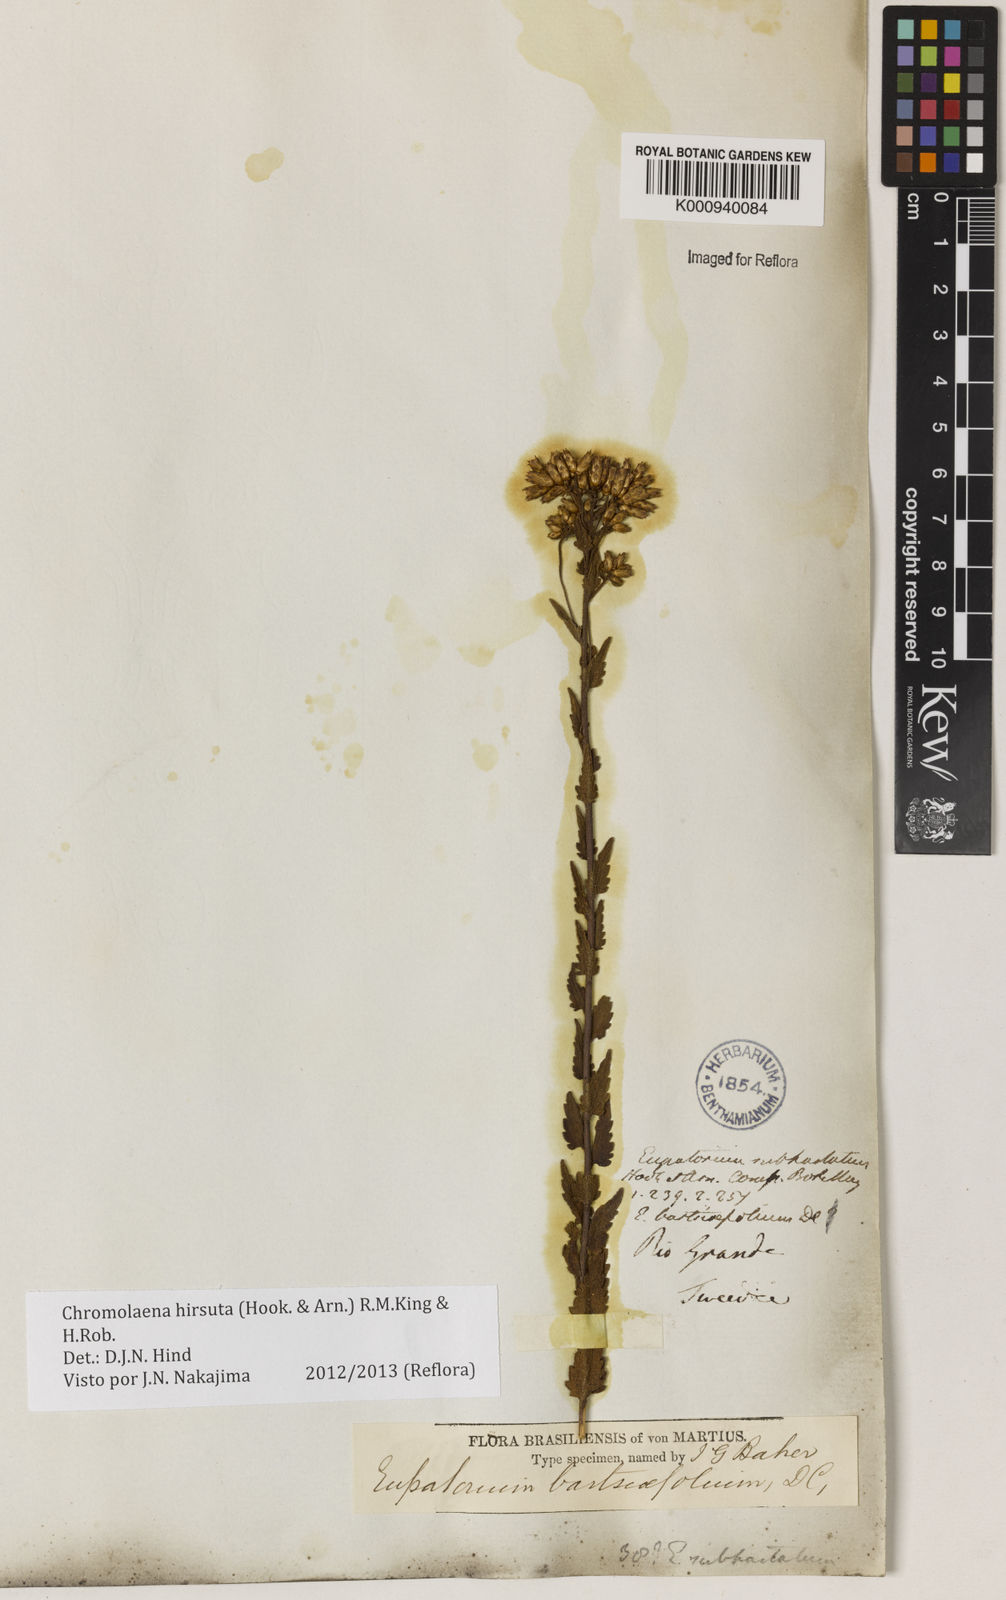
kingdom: Plantae
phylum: Tracheophyta
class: Magnoliopsida
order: Asterales
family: Asteraceae
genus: Chromolaena
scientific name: Chromolaena hirsuta
